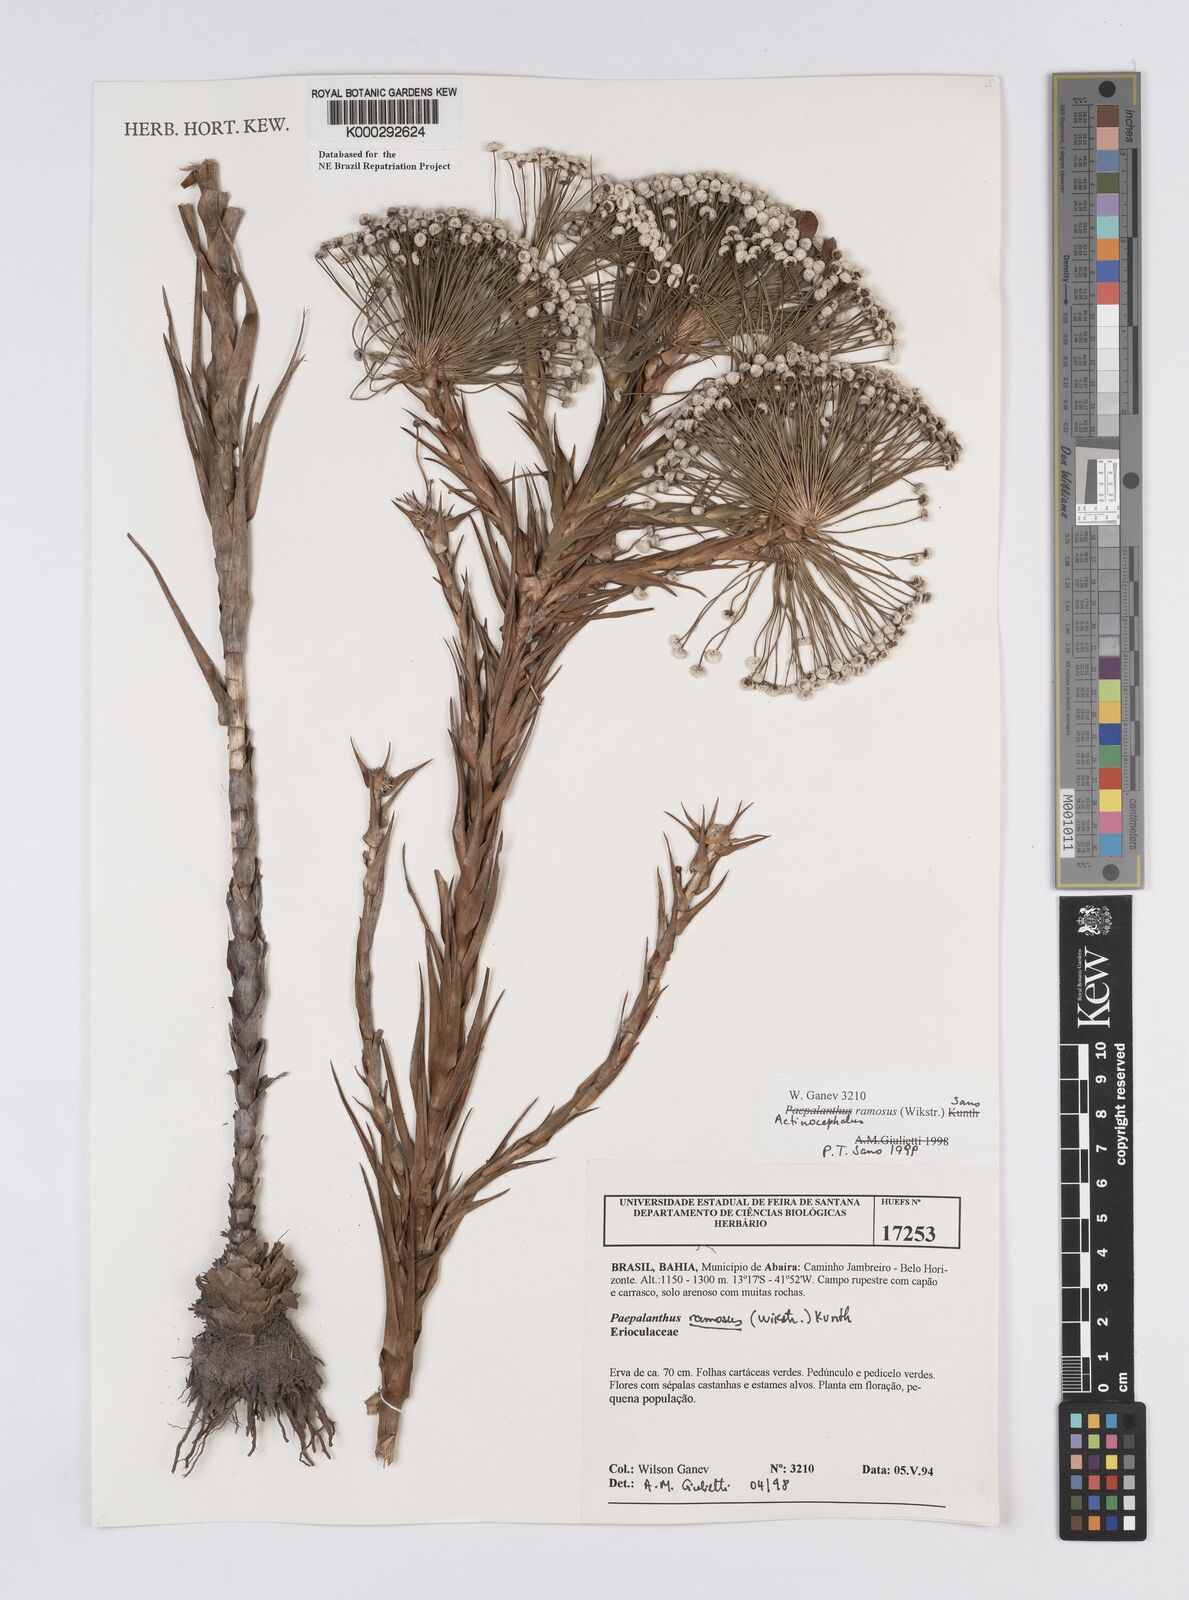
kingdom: Plantae
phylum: Tracheophyta
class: Liliopsida
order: Poales
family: Eriocaulaceae
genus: Paepalanthus
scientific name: Paepalanthus ramosus
